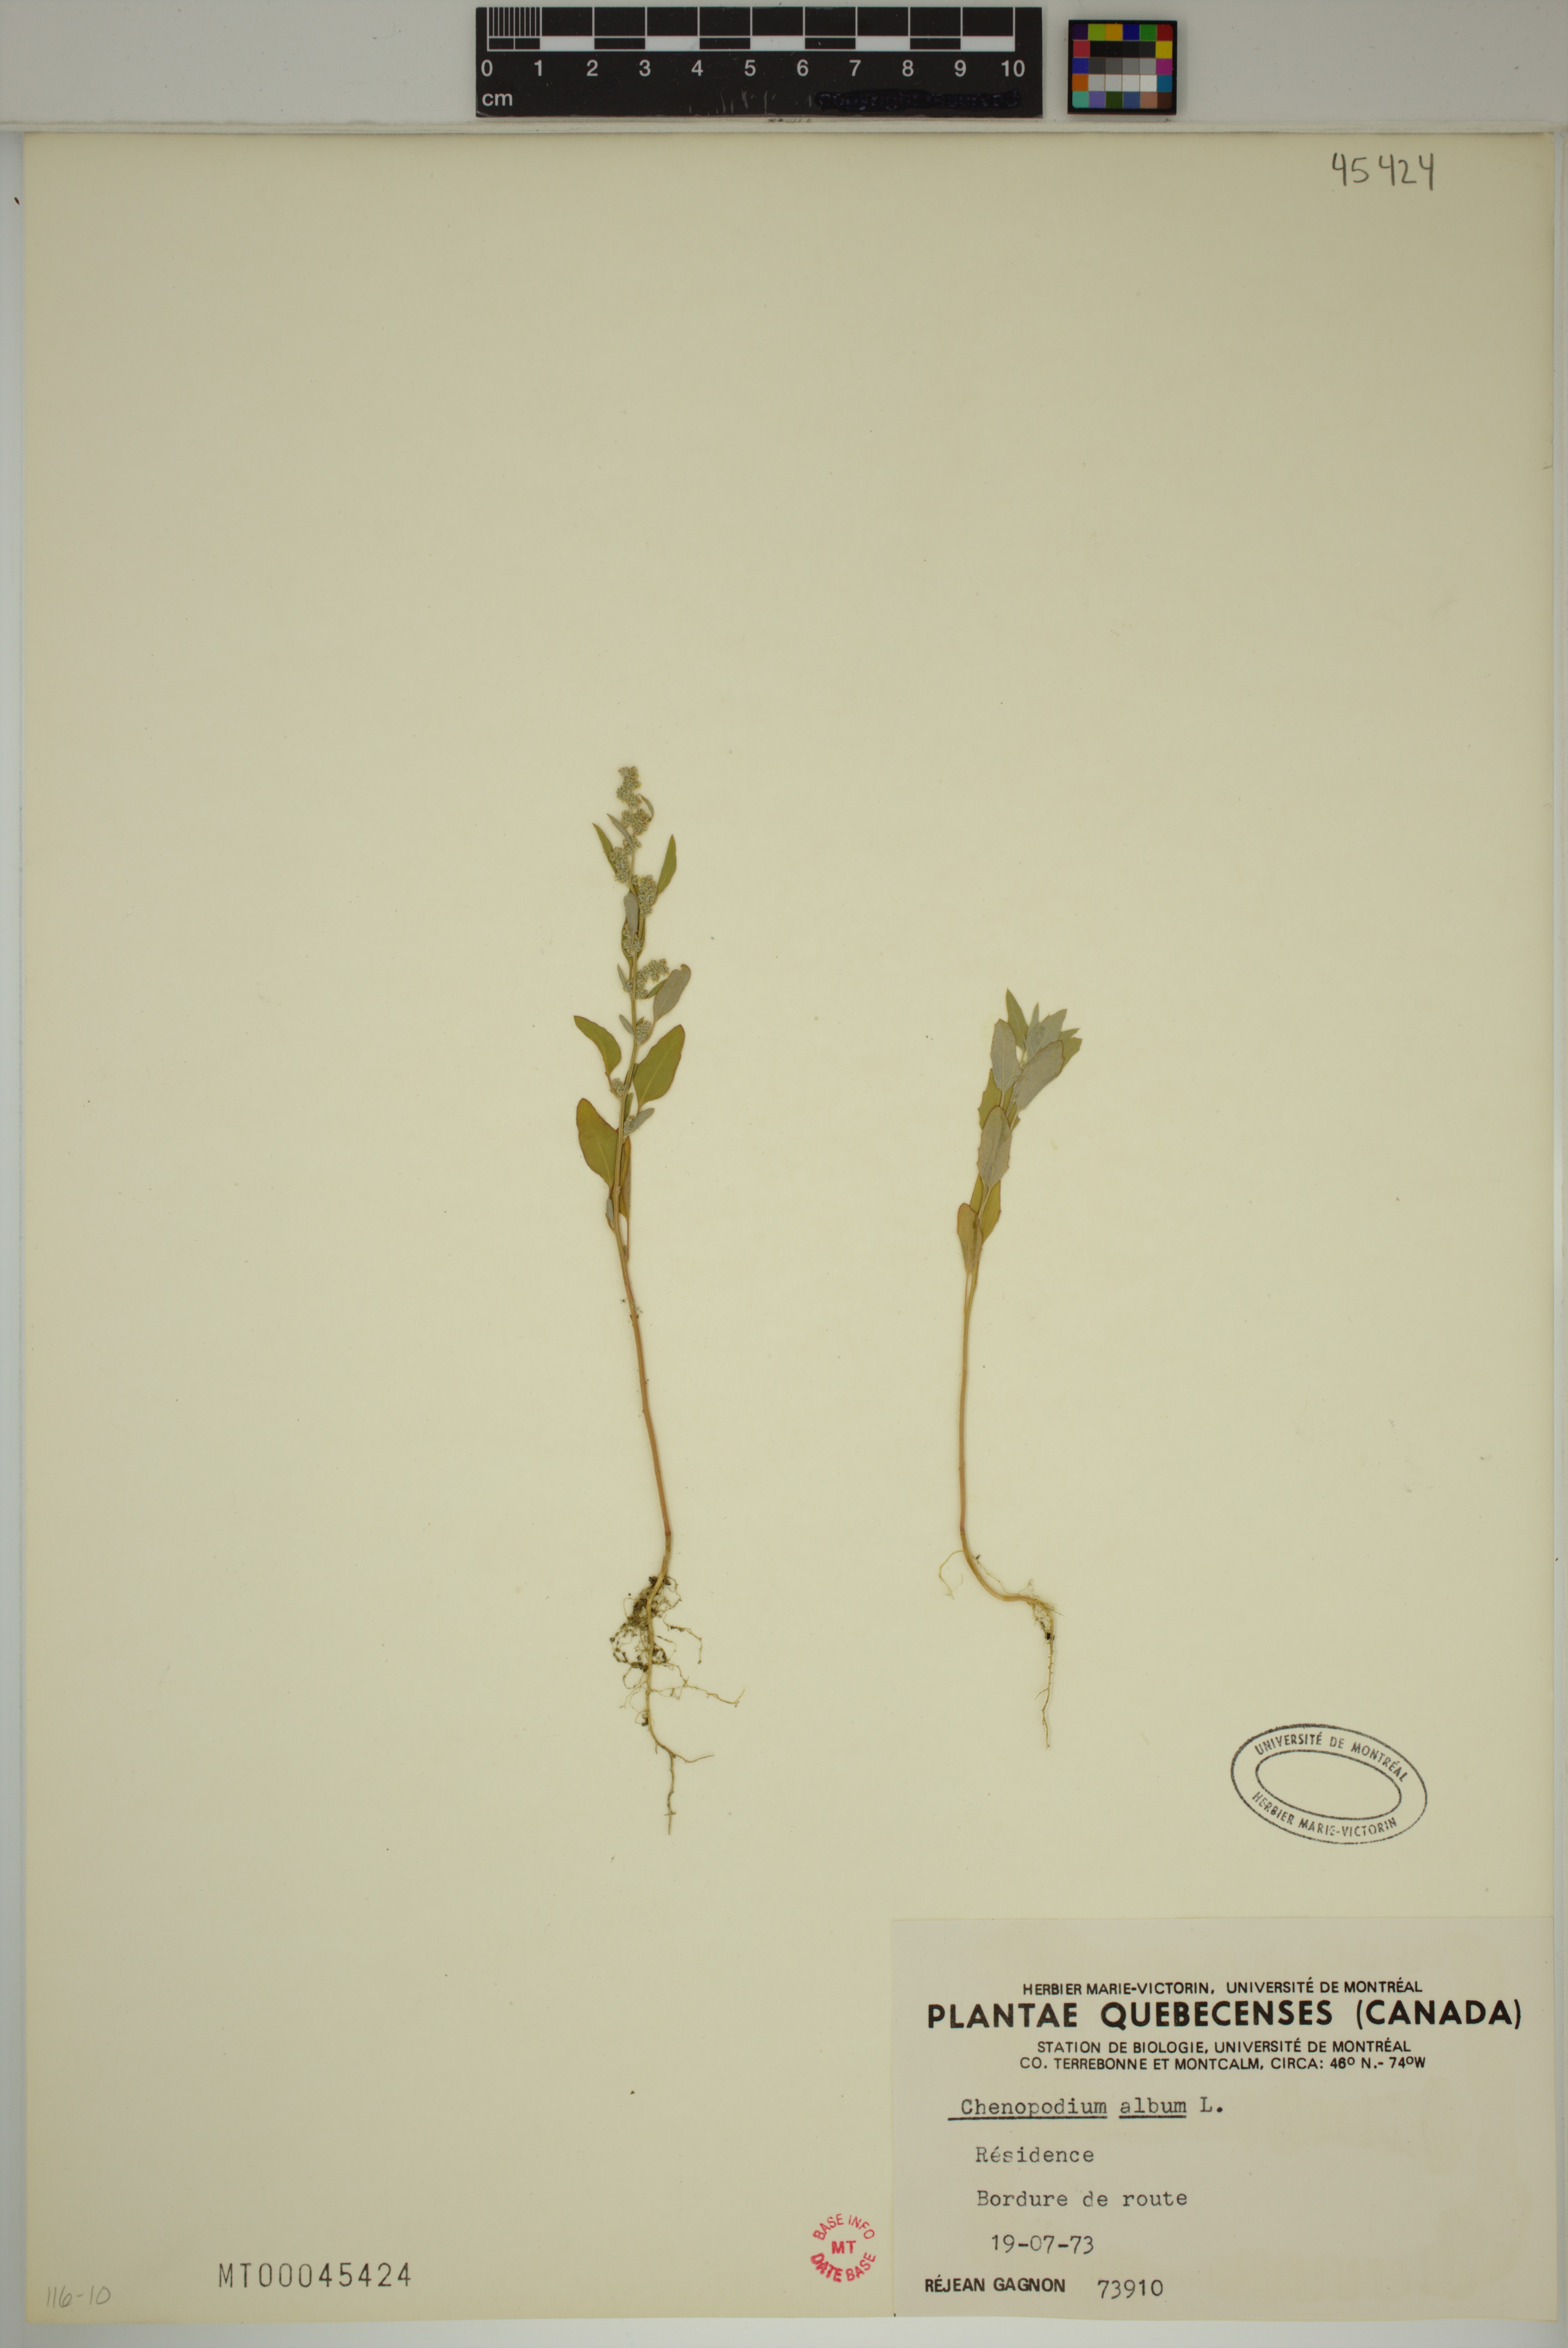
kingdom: Plantae
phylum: Tracheophyta
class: Magnoliopsida
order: Caryophyllales
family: Amaranthaceae
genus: Chenopodium
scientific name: Chenopodium album
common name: Fat-hen
